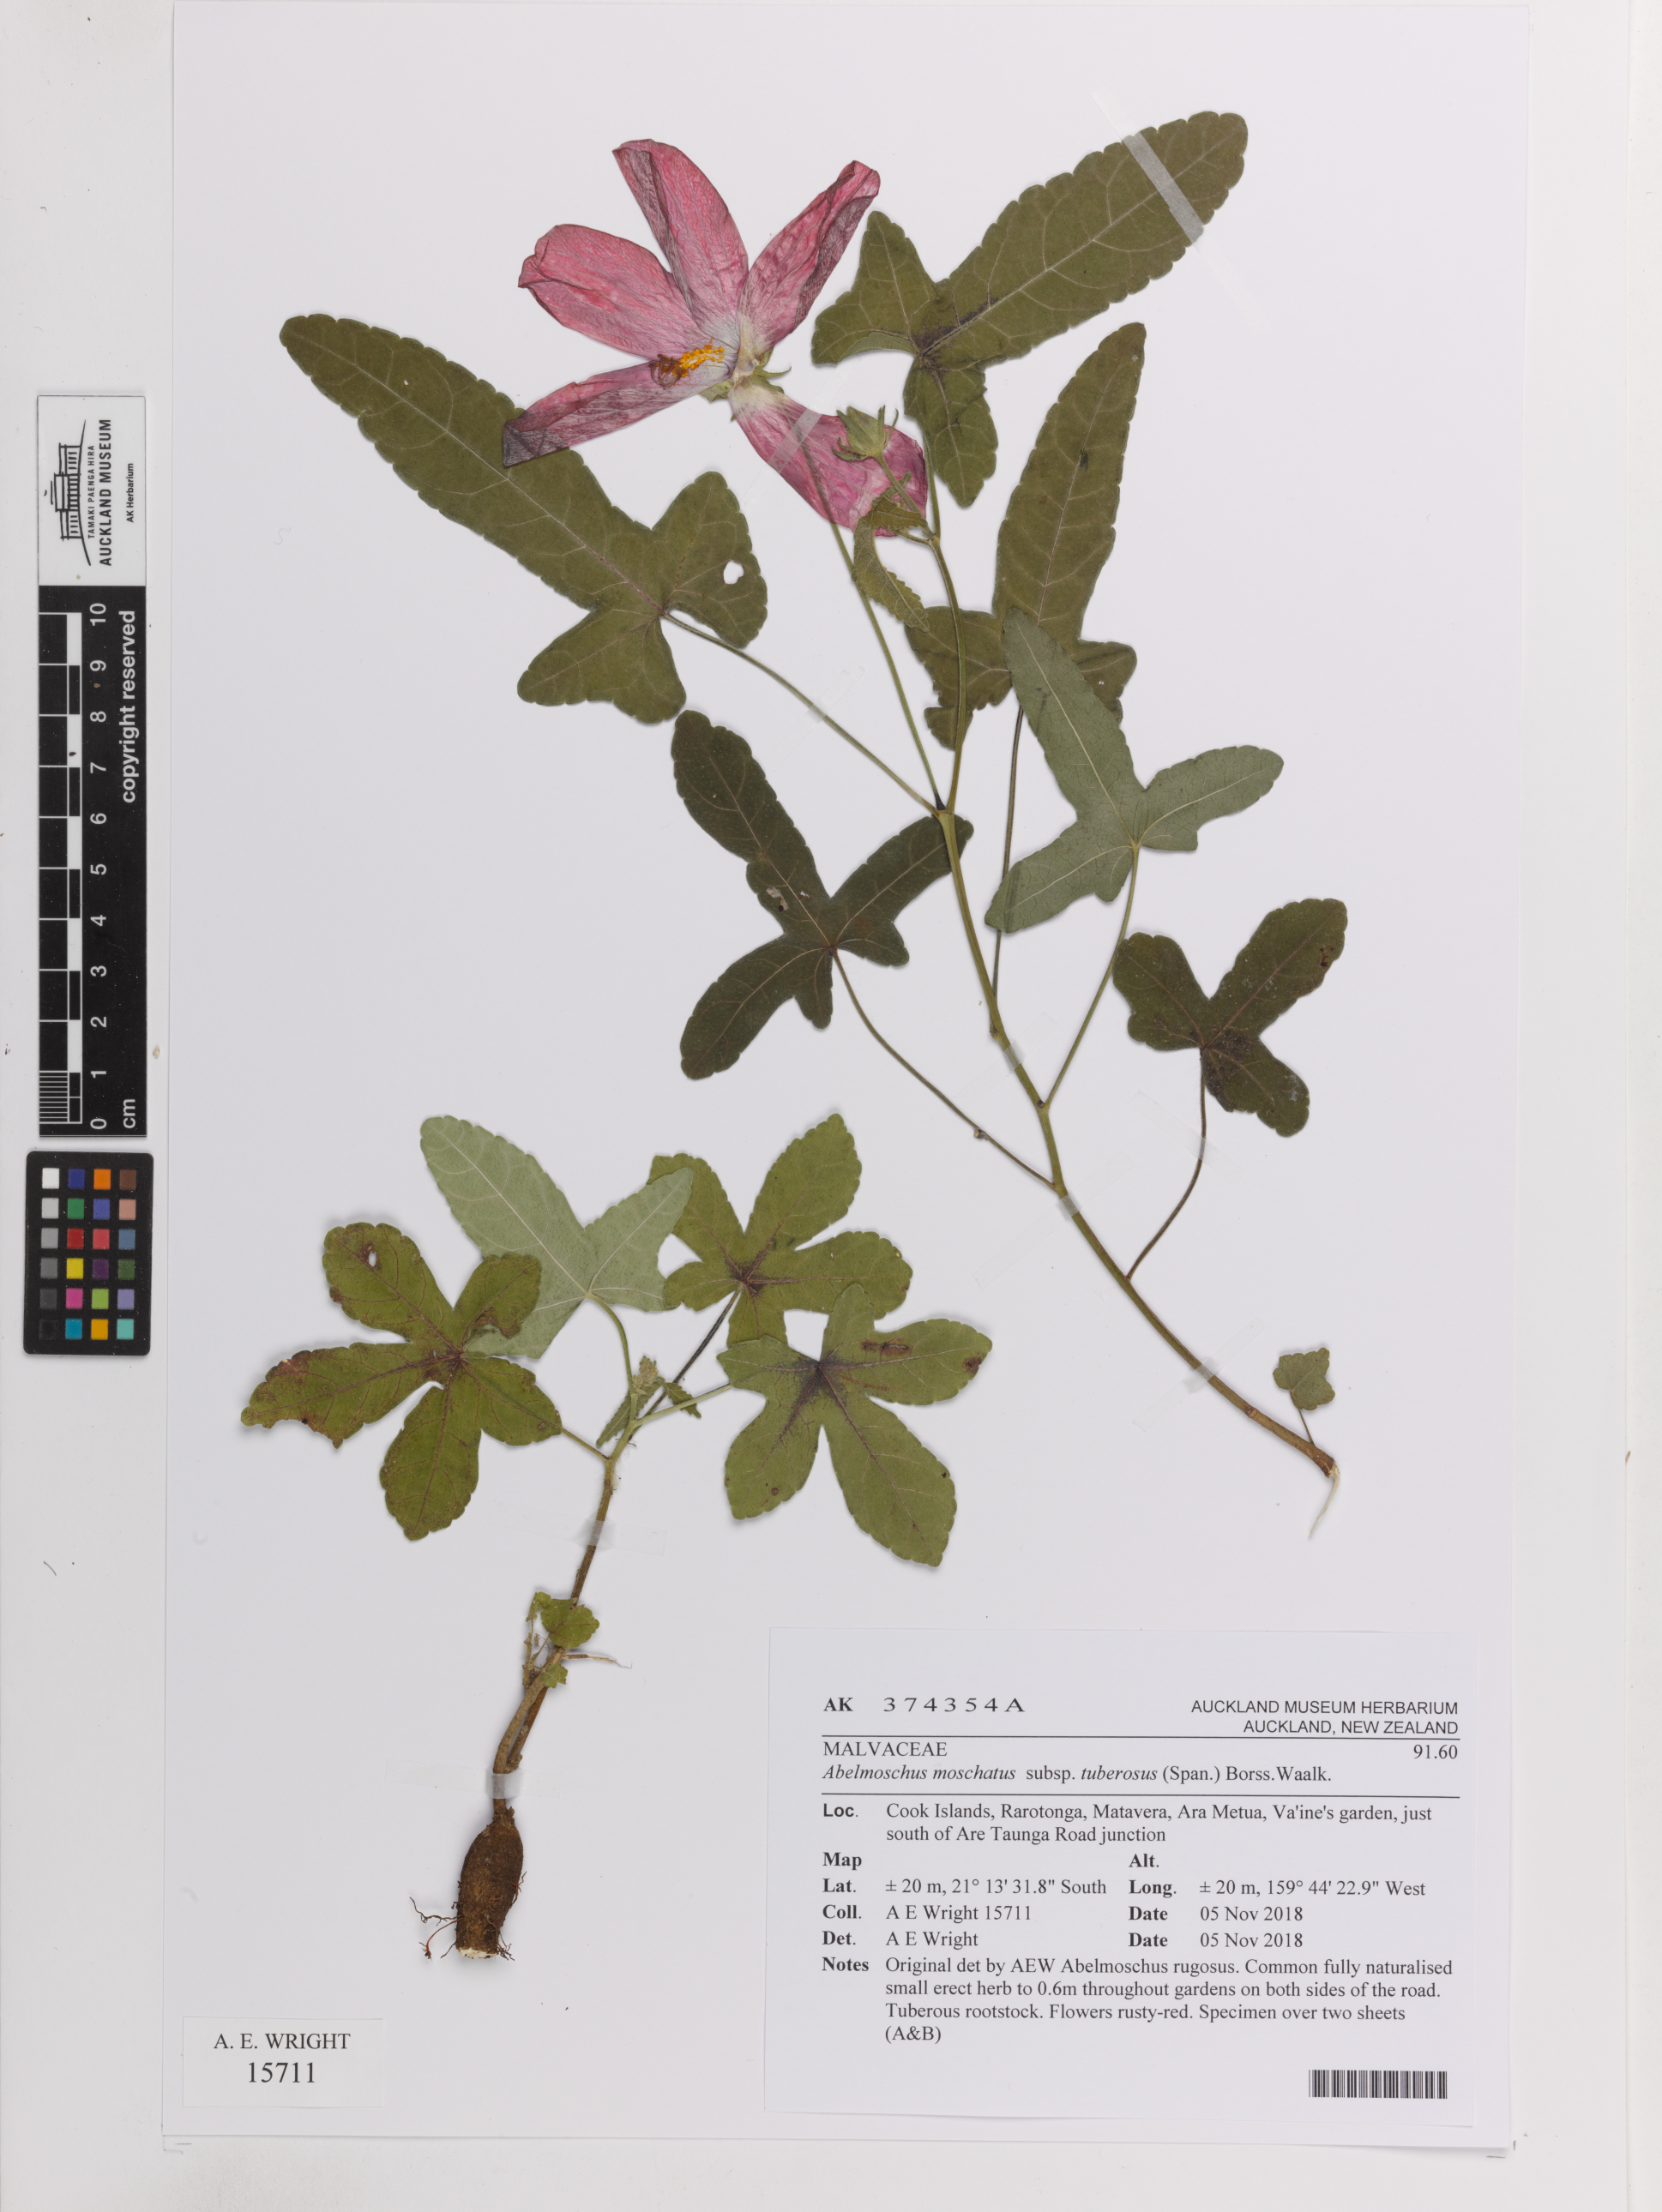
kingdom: Plantae
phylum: Tracheophyta
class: Magnoliopsida
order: Malvales
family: Malvaceae
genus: Abelmoschus
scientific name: Abelmoschus sagittifolius
